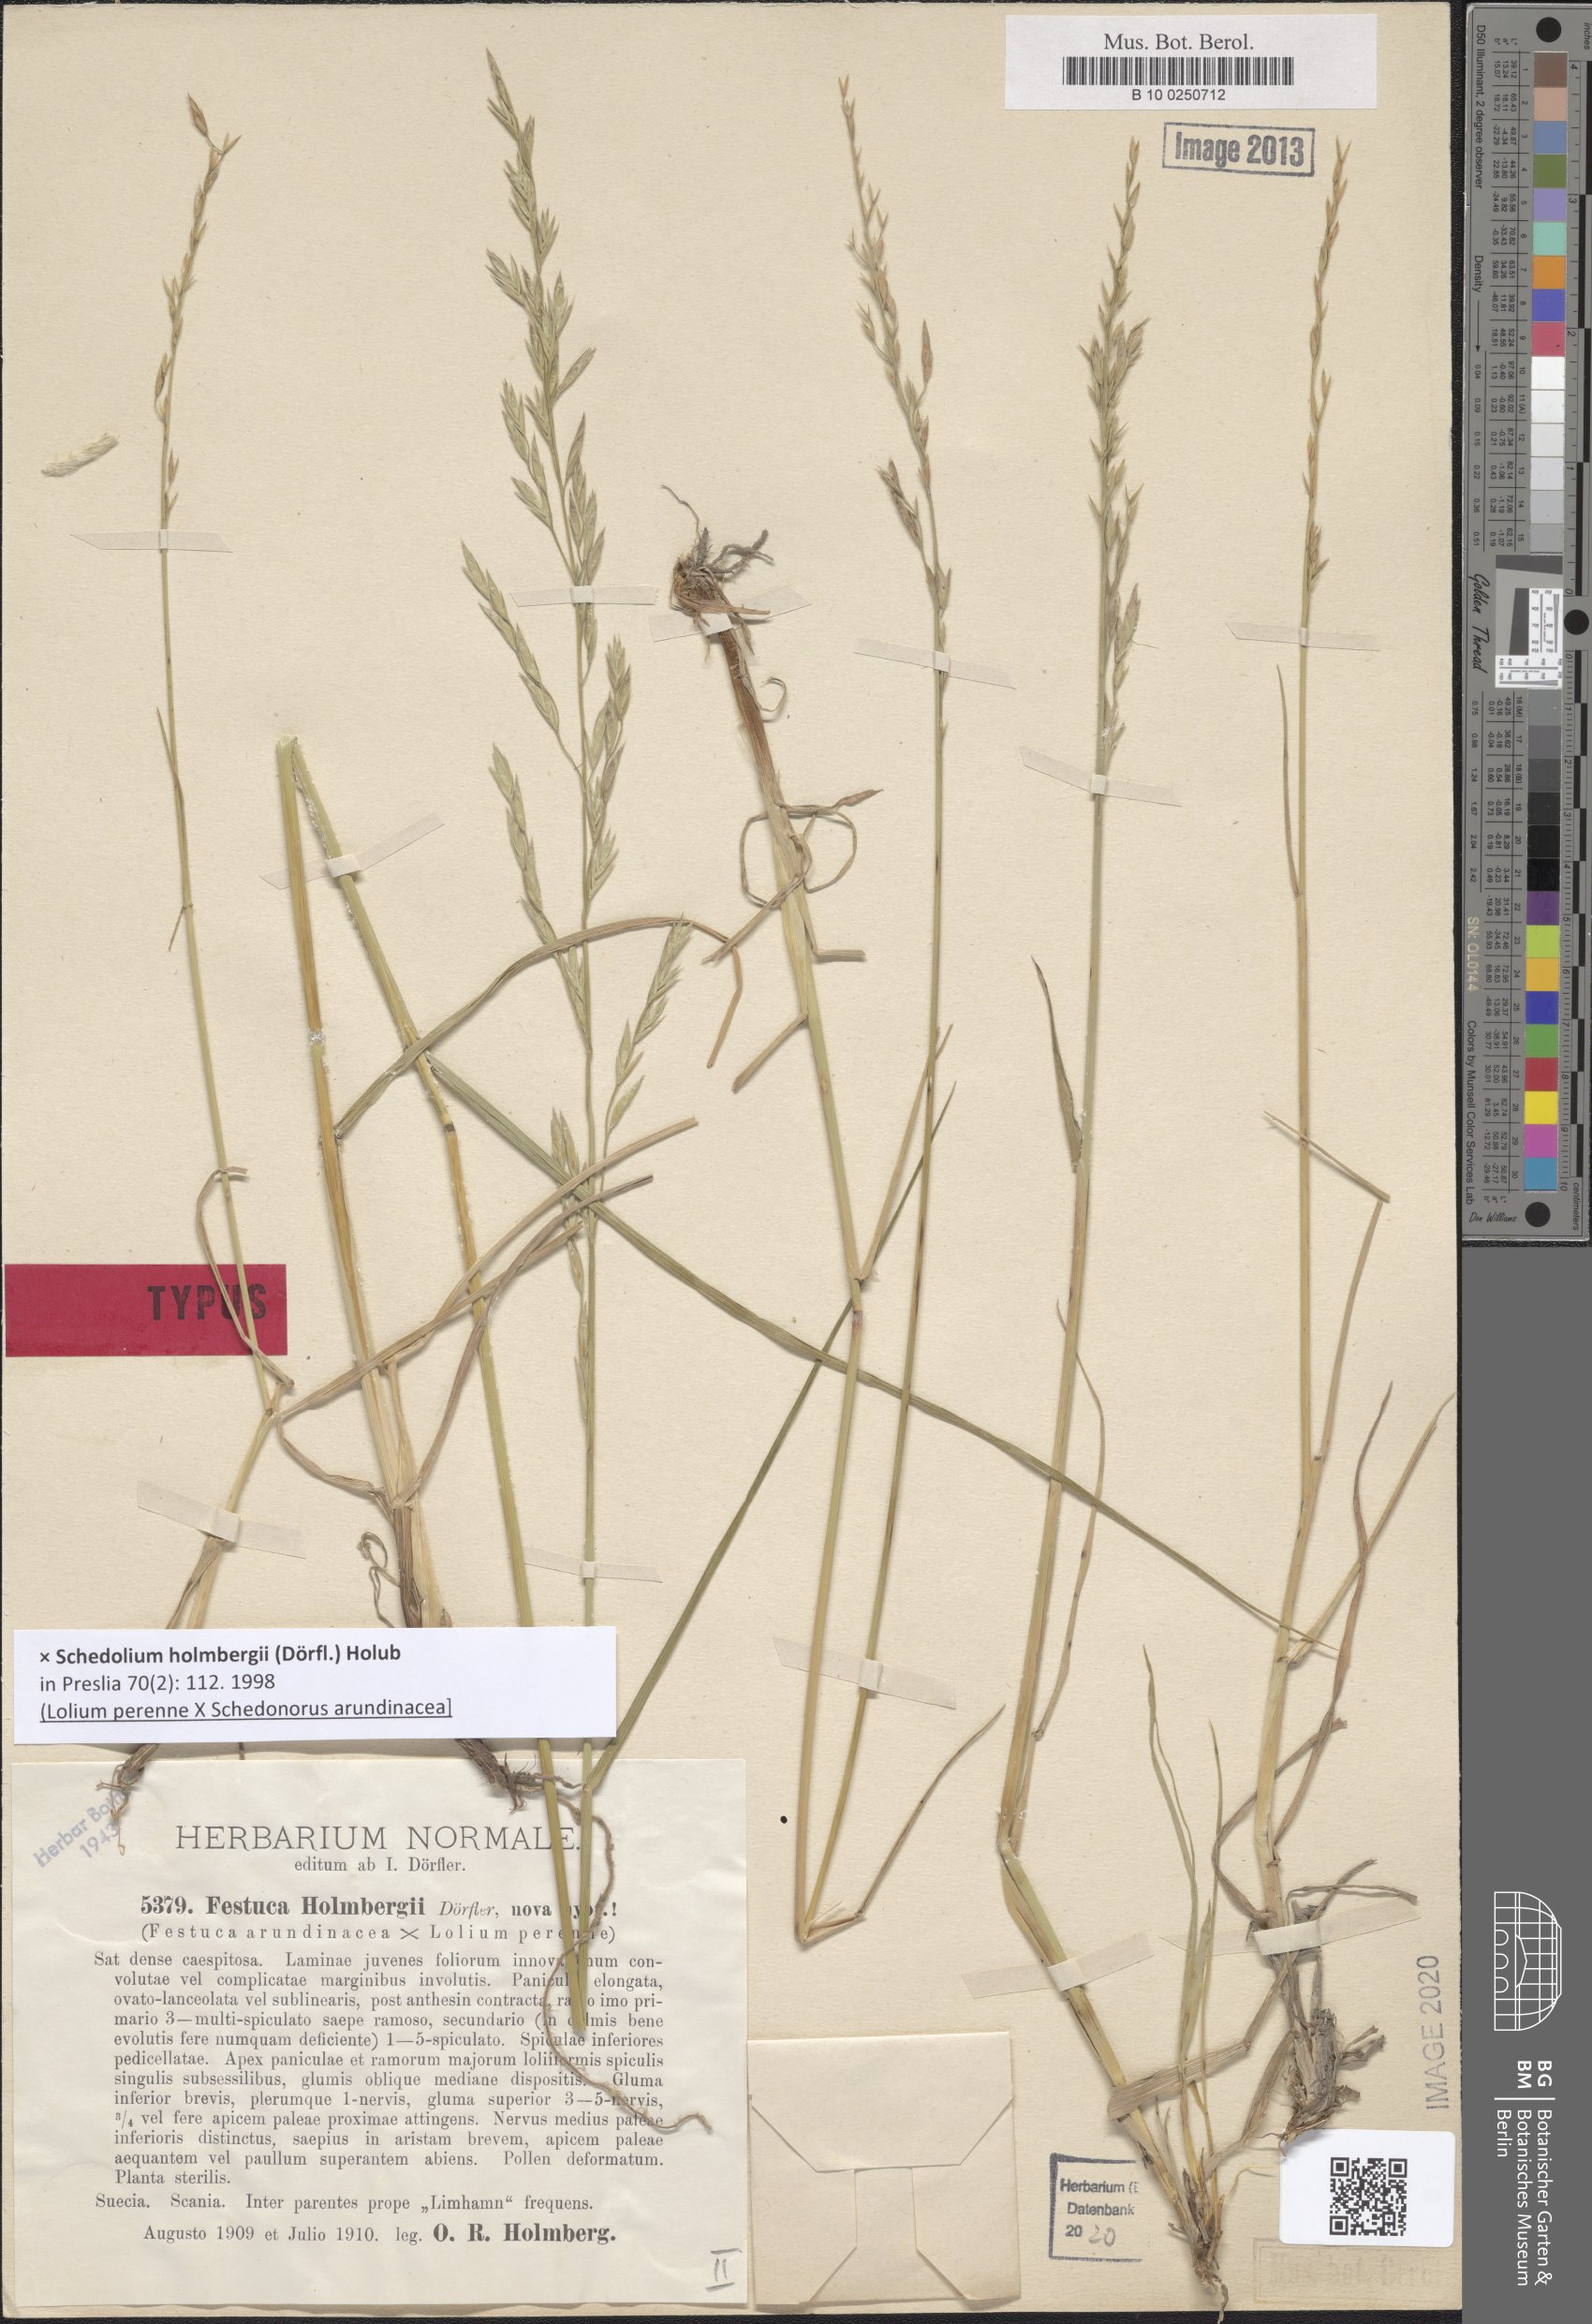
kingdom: Plantae
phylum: Tracheophyta
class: Liliopsida
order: Poales
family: Poaceae
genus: Lolium
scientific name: Lolium holmbergii
